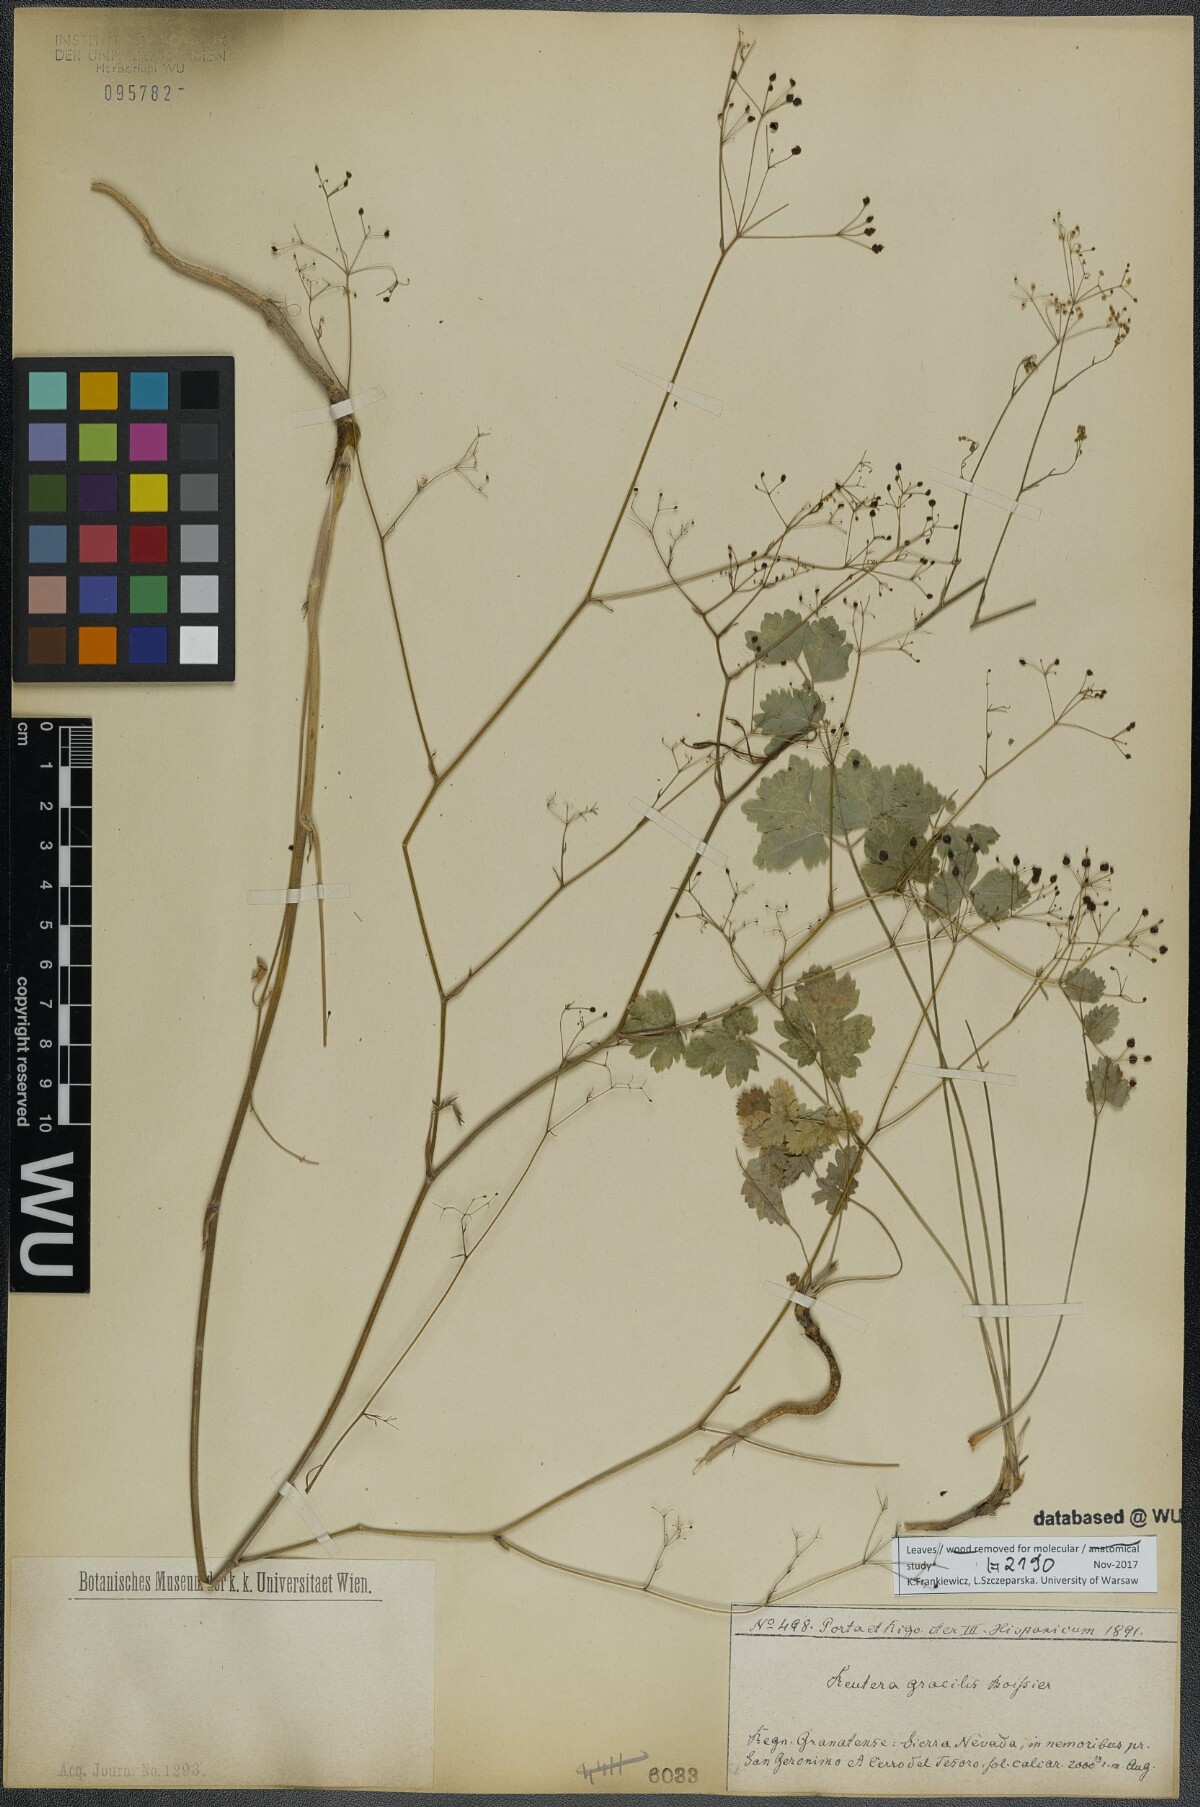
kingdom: Plantae
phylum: Tracheophyta
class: Magnoliopsida
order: Apiales
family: Apiaceae
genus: Pimpinella
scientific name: Pimpinella propinqua
